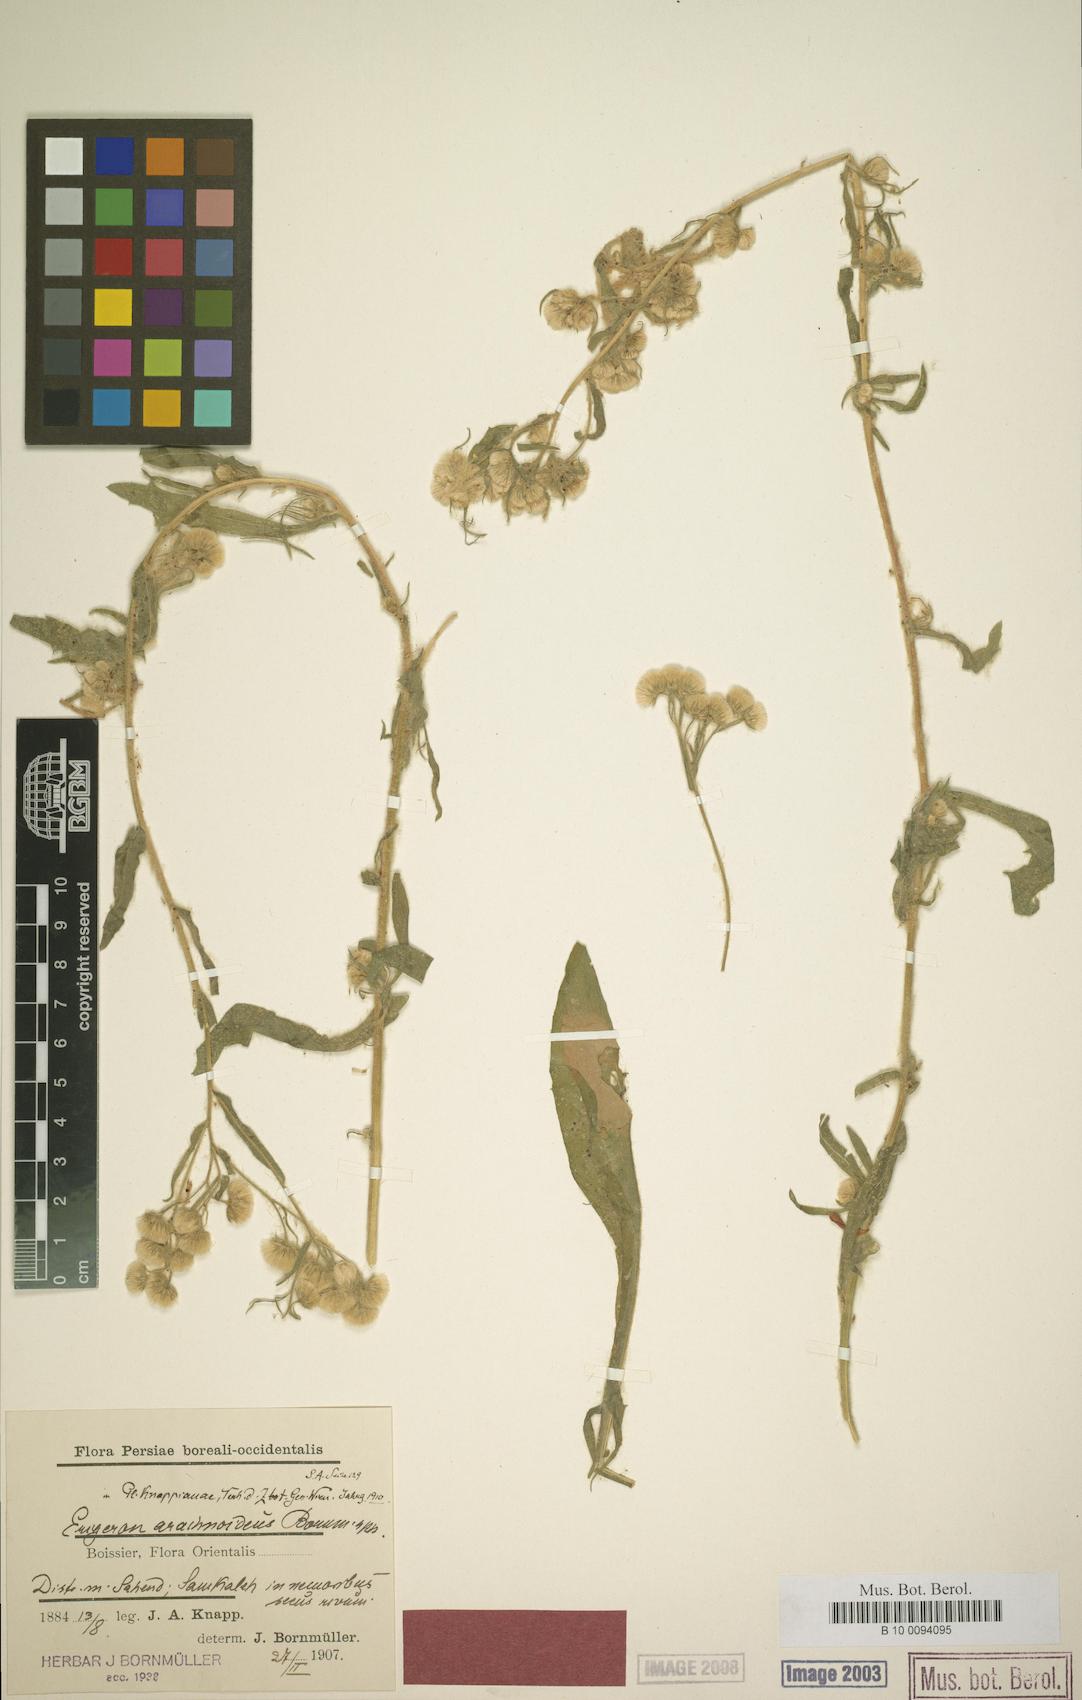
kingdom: Plantae
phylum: Tracheophyta
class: Magnoliopsida
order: Asterales
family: Asteraceae
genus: Erigeron
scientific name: Erigeron arachnoideus
